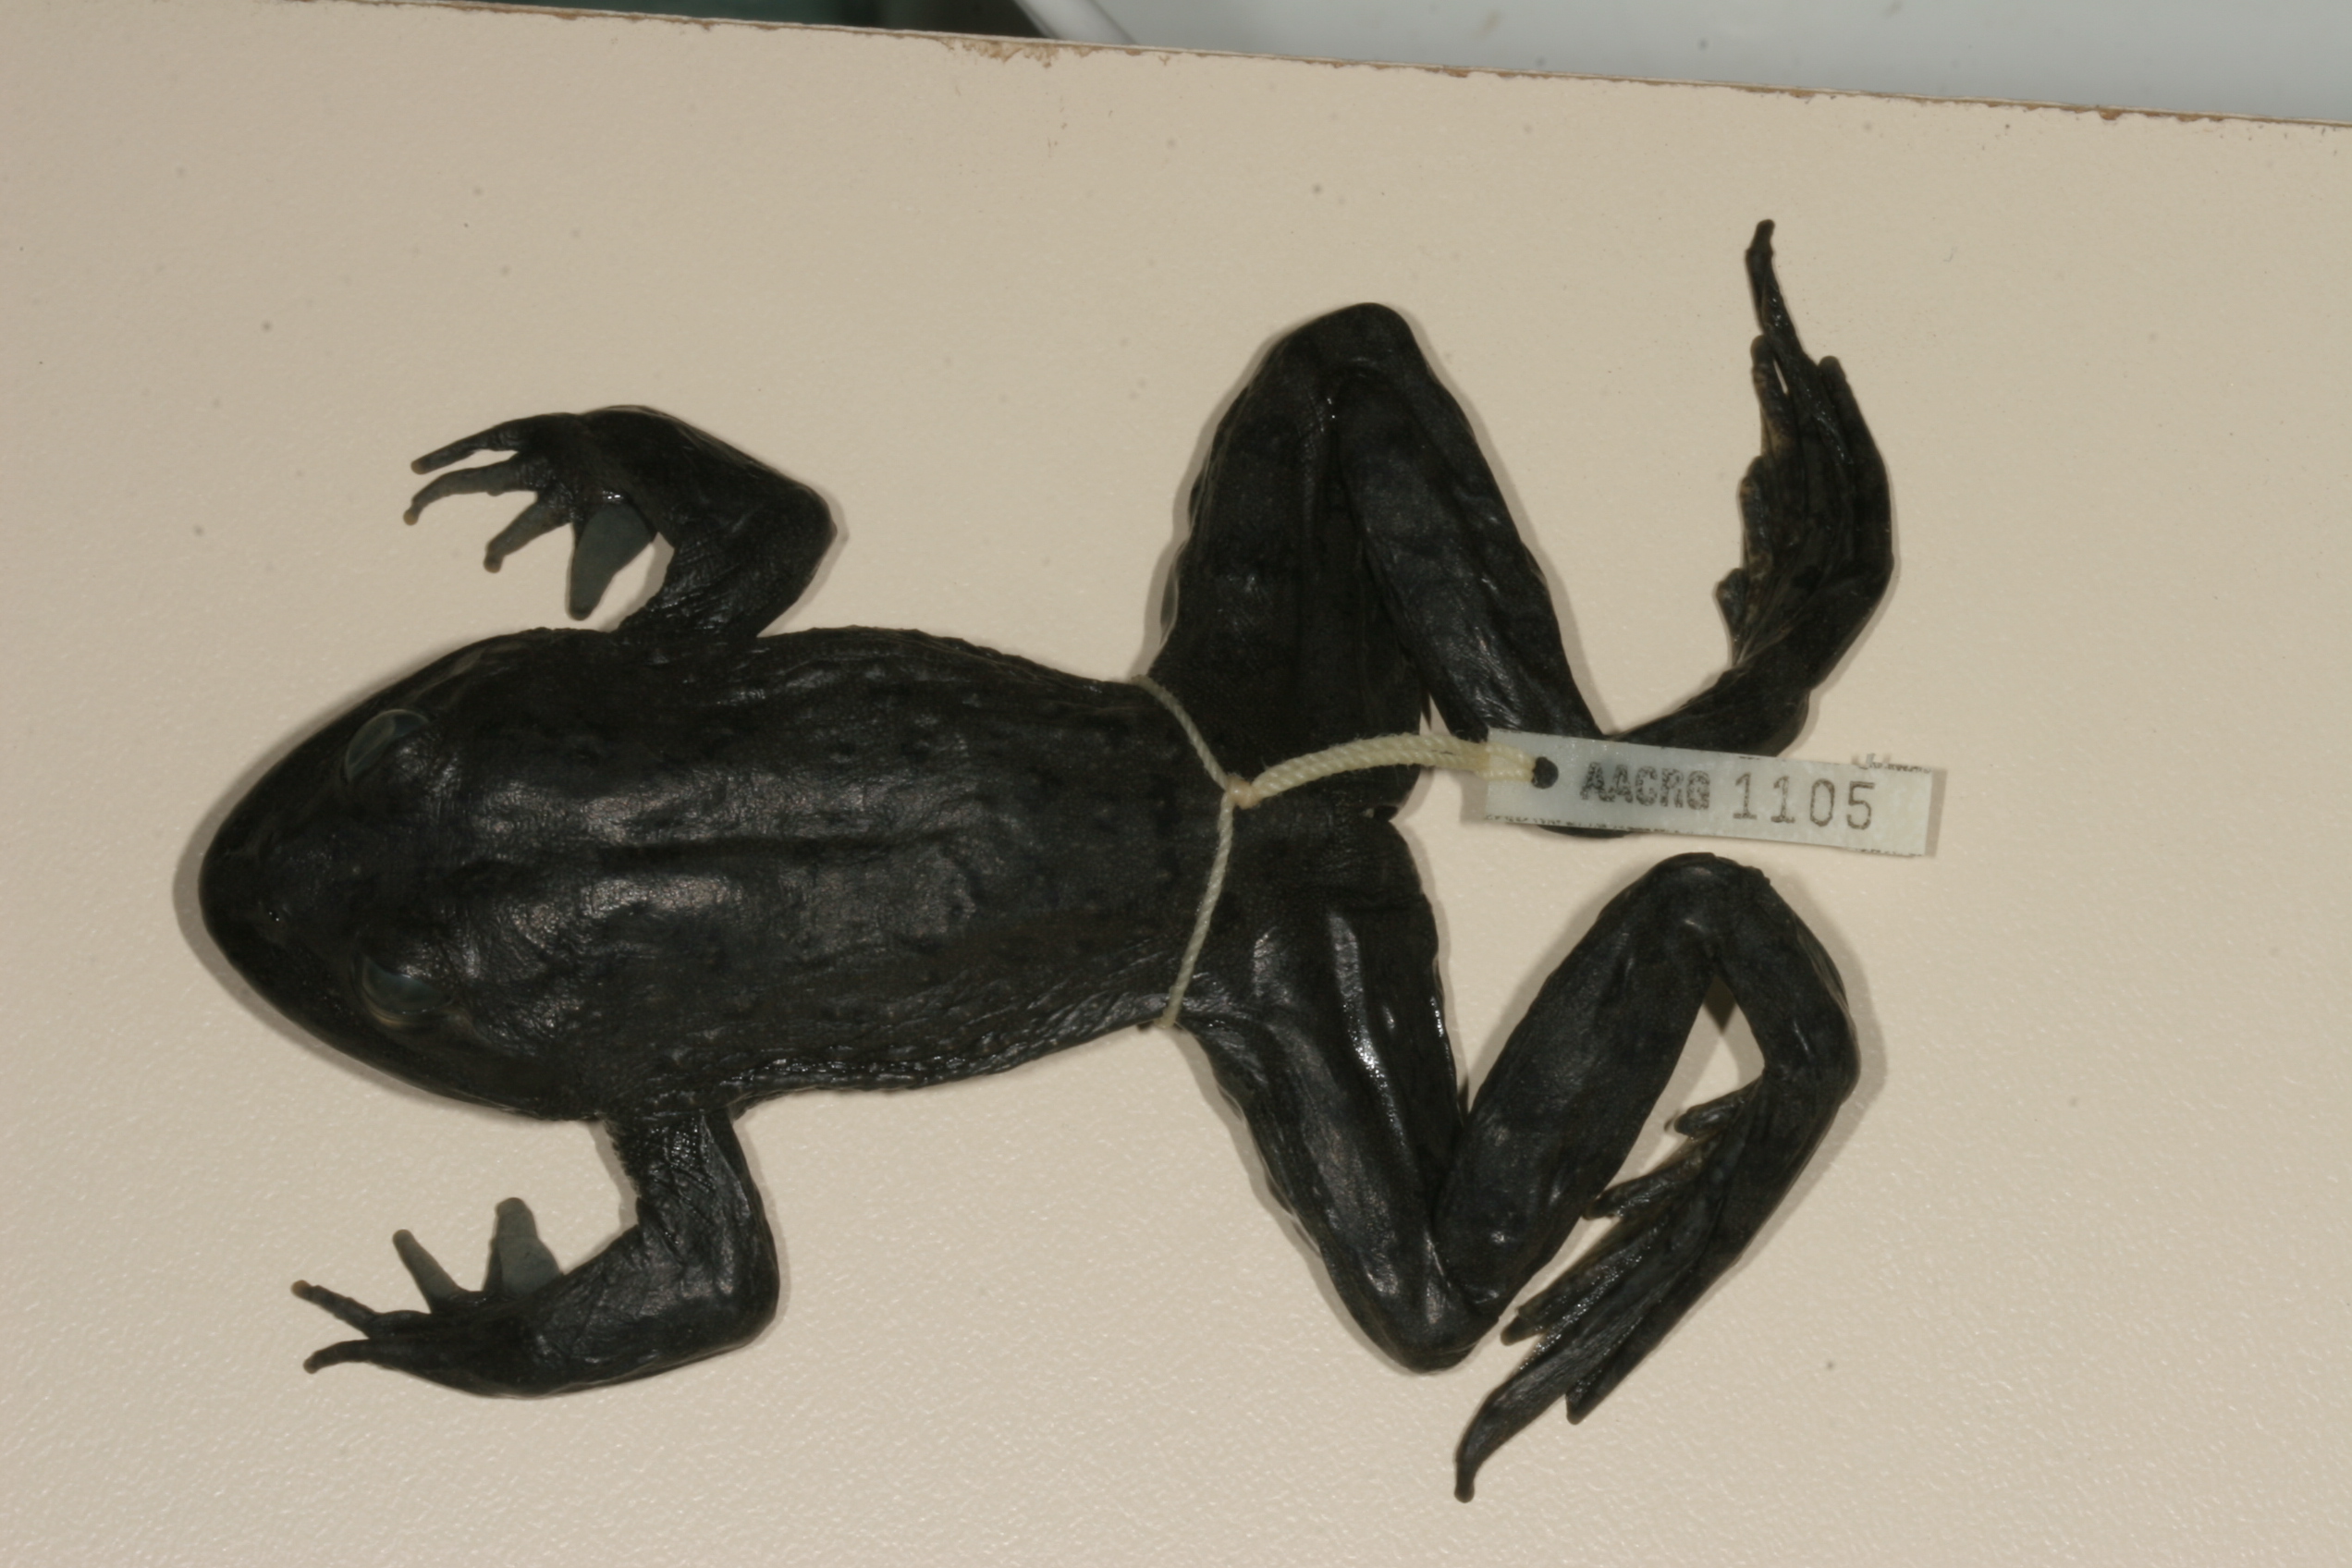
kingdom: Animalia
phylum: Chordata
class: Amphibia
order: Anura
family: Pyxicephalidae
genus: Amietia
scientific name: Amietia vertebralis
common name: Drakensberg stream frog
